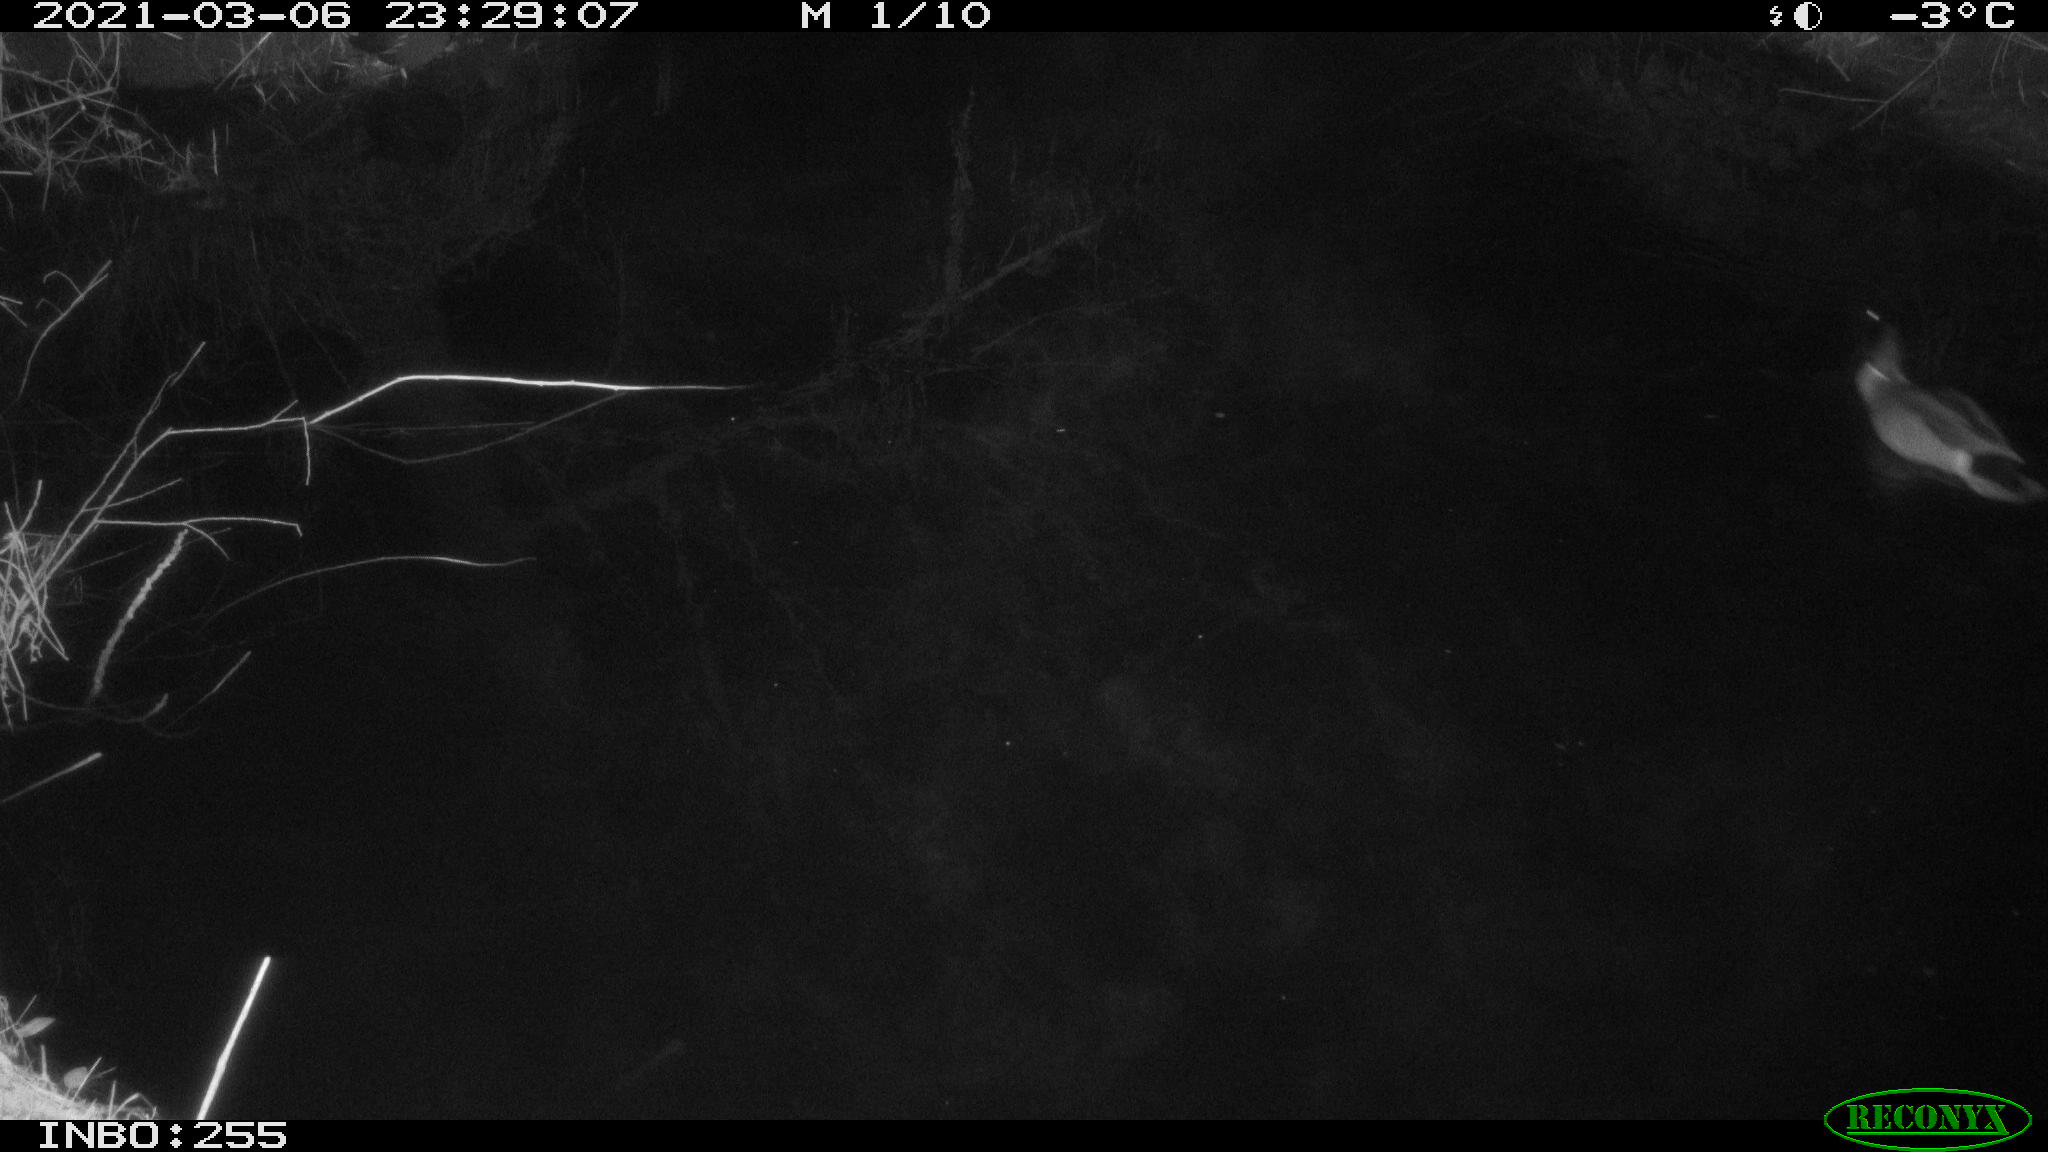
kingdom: Animalia
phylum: Chordata
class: Aves
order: Anseriformes
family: Anatidae
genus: Anas
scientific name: Anas platyrhynchos
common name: Mallard
